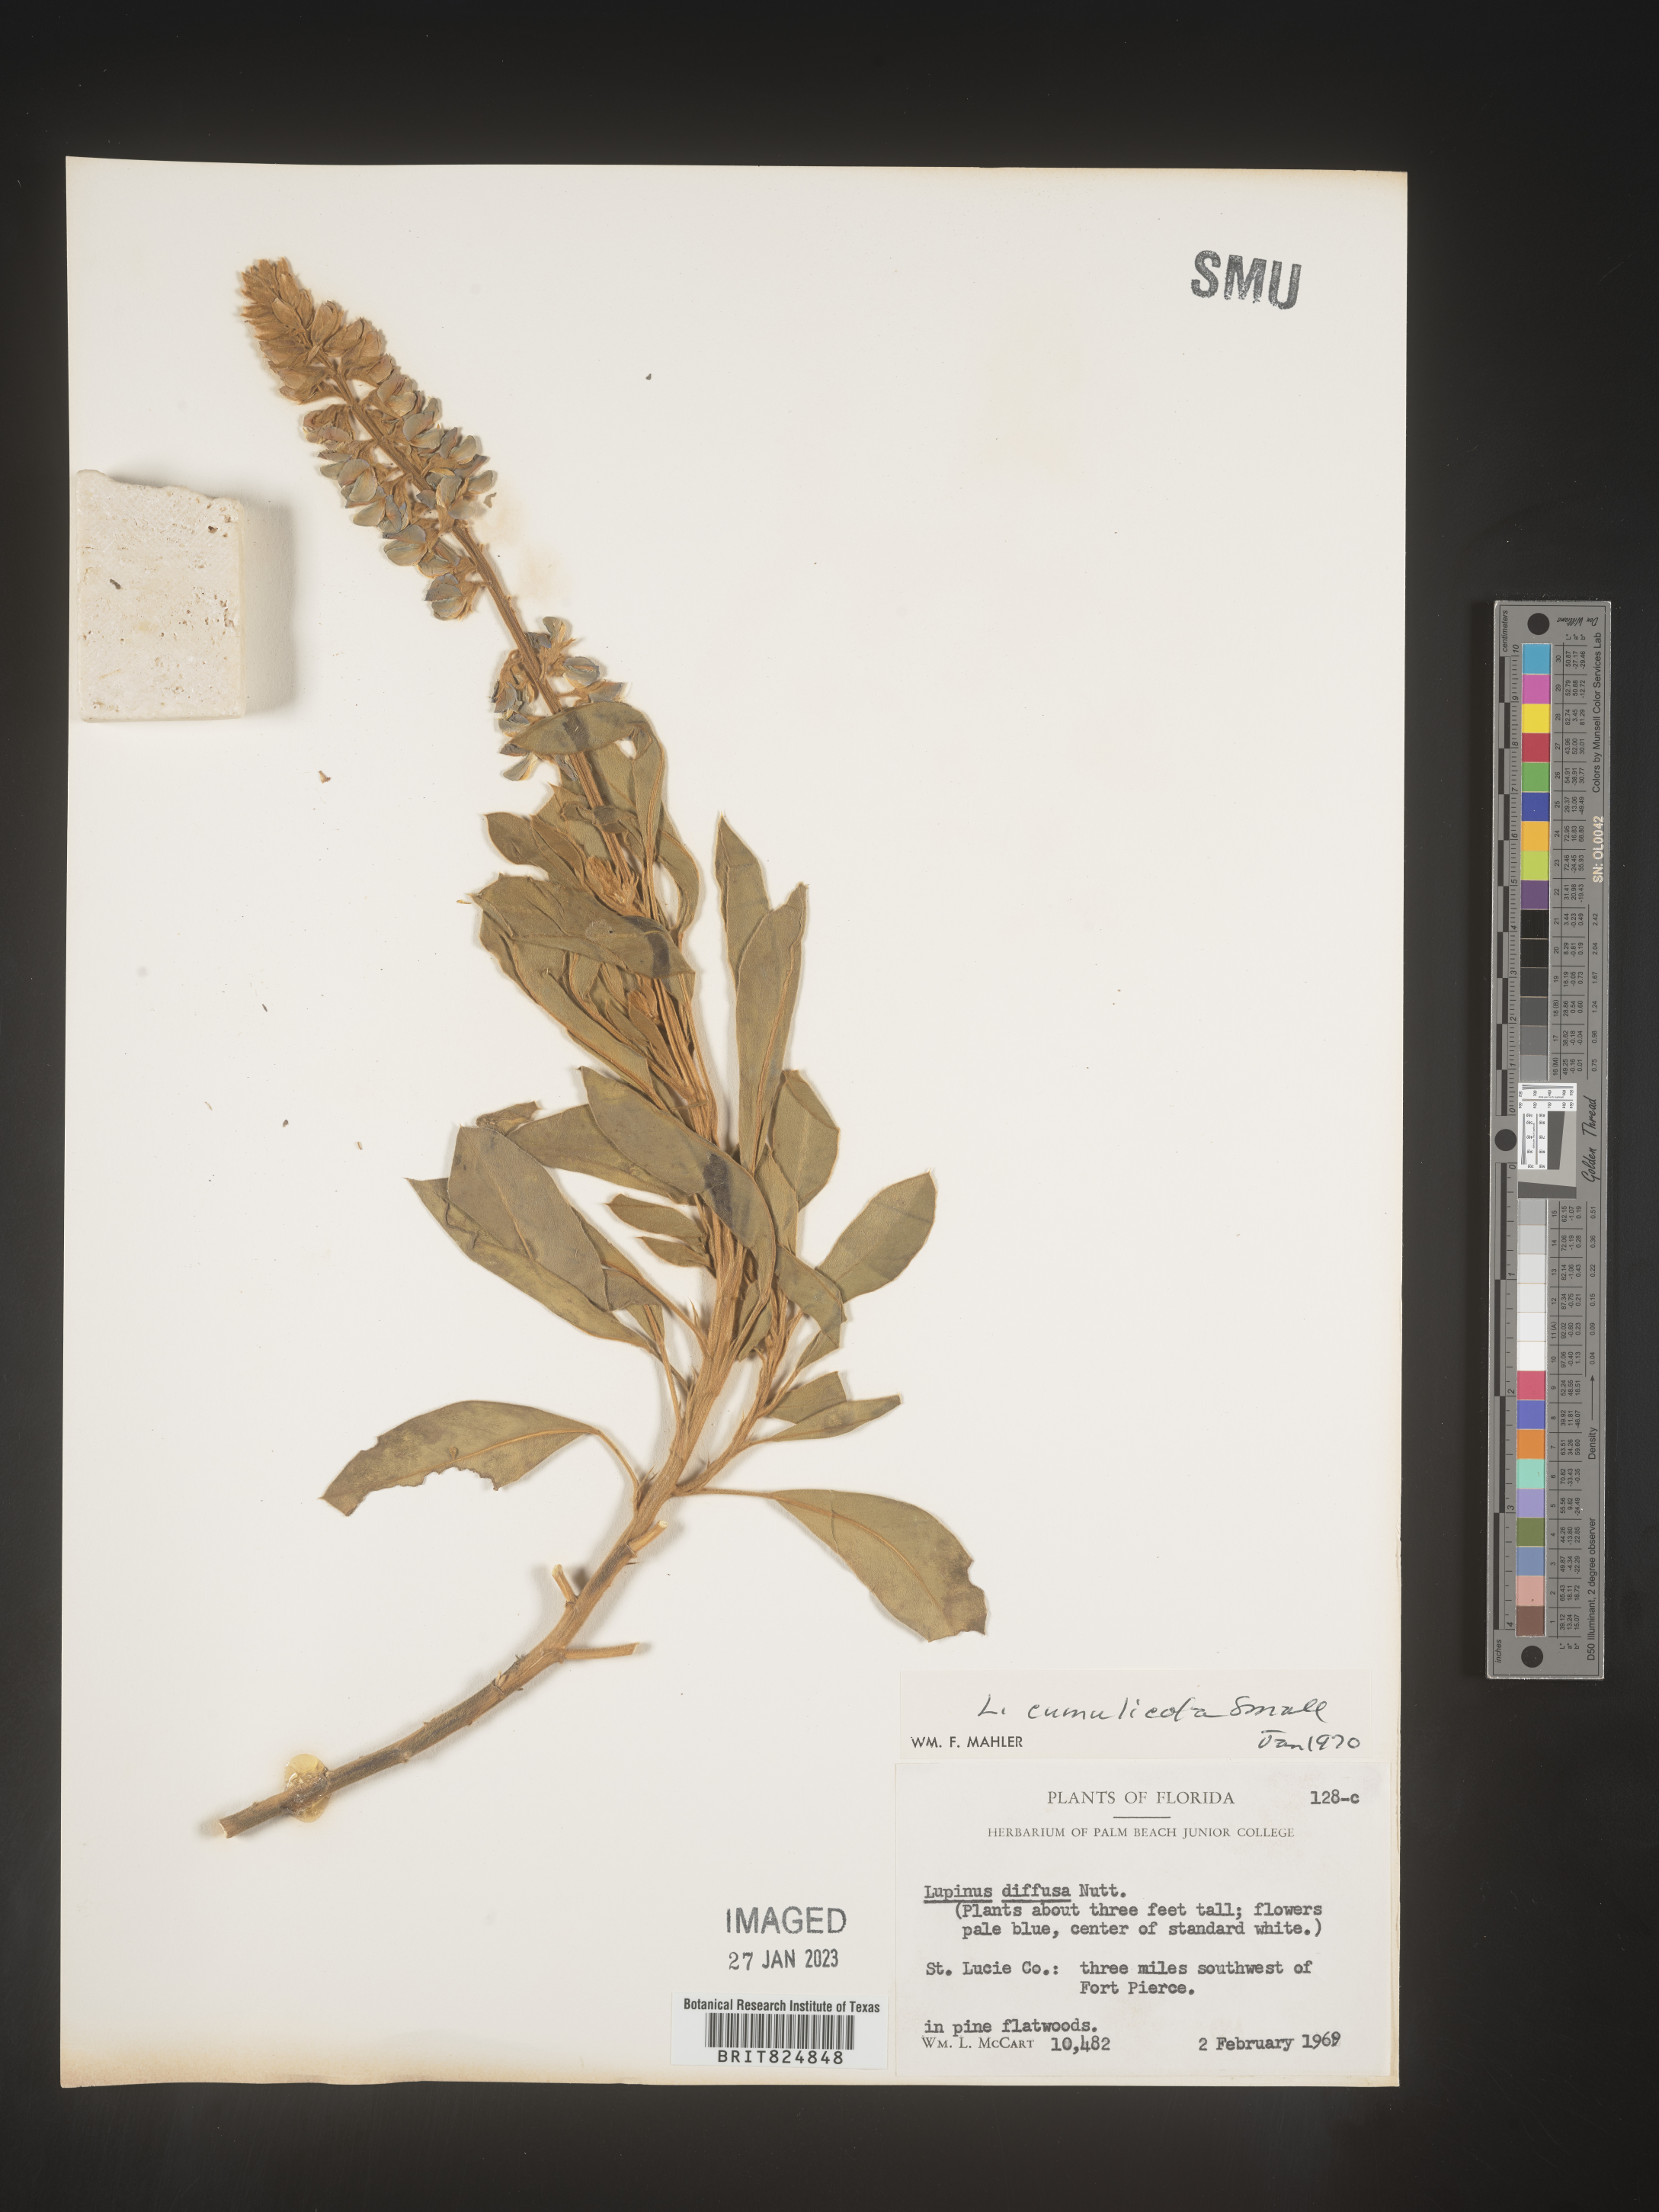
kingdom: Plantae
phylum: Tracheophyta
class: Magnoliopsida
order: Fabales
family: Fabaceae
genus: Lupinus
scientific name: Lupinus
